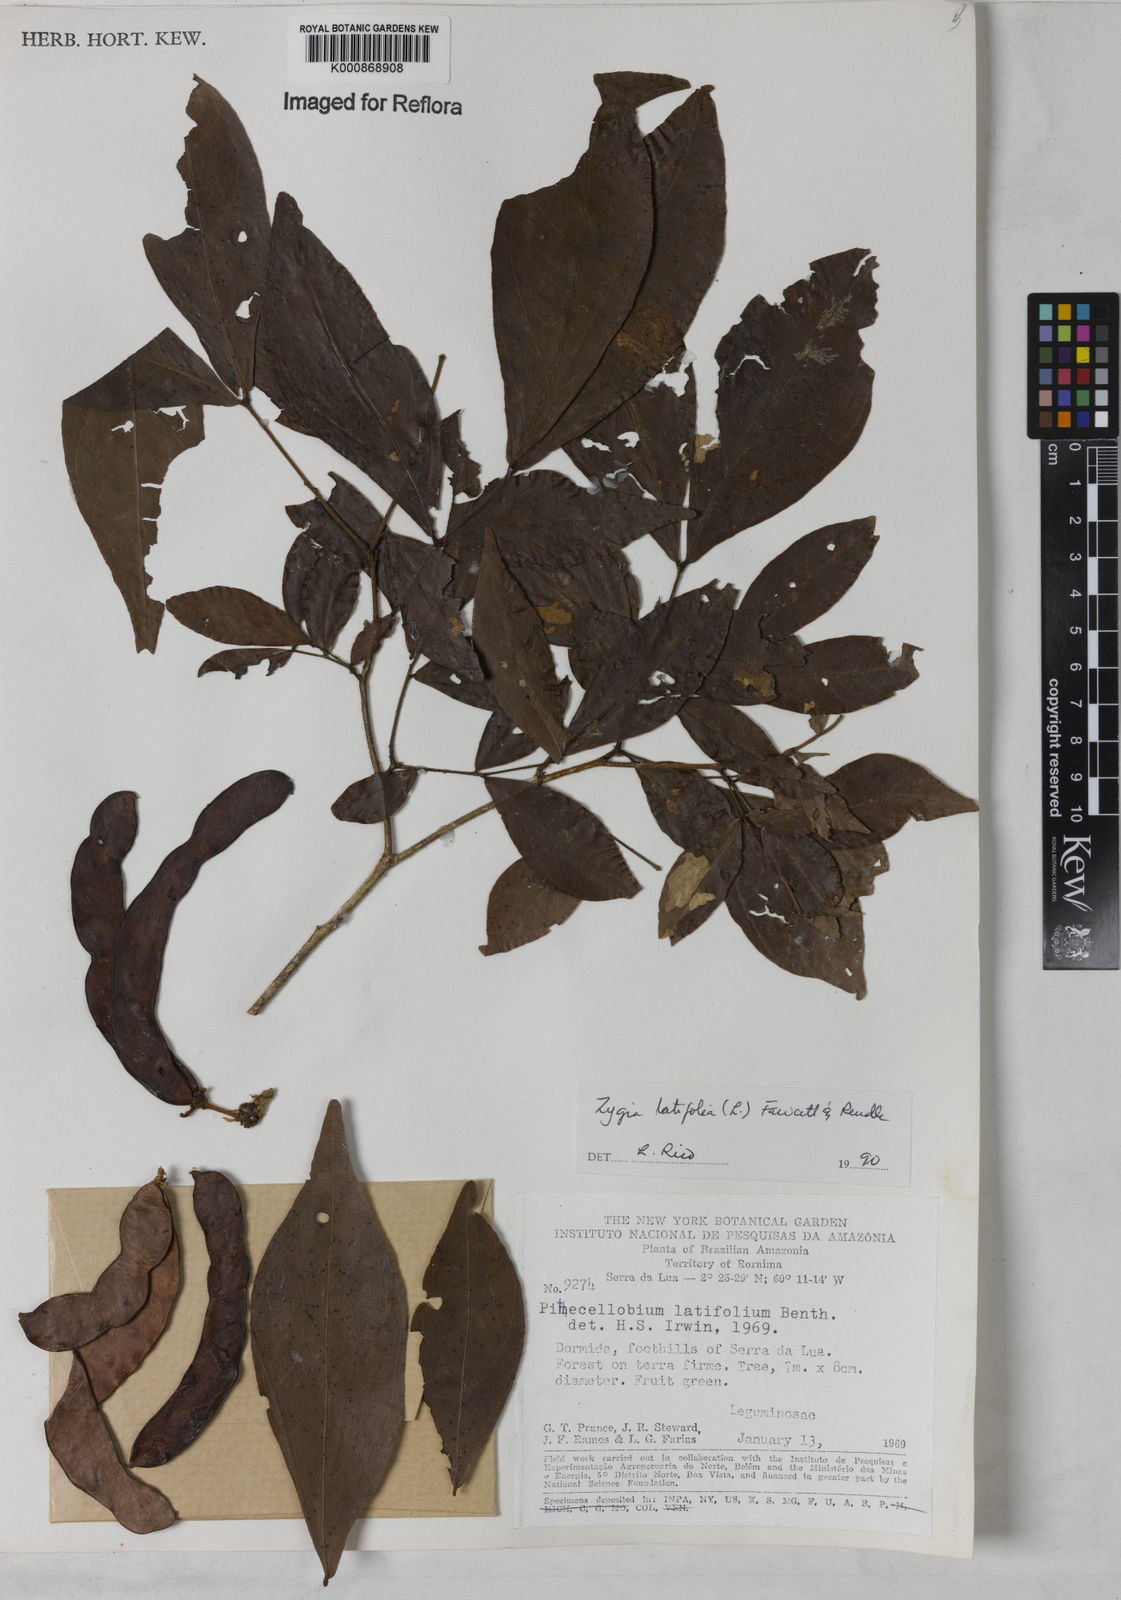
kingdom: Plantae
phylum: Tracheophyta
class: Magnoliopsida
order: Fabales
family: Fabaceae
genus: Zygia
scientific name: Zygia latifolia
